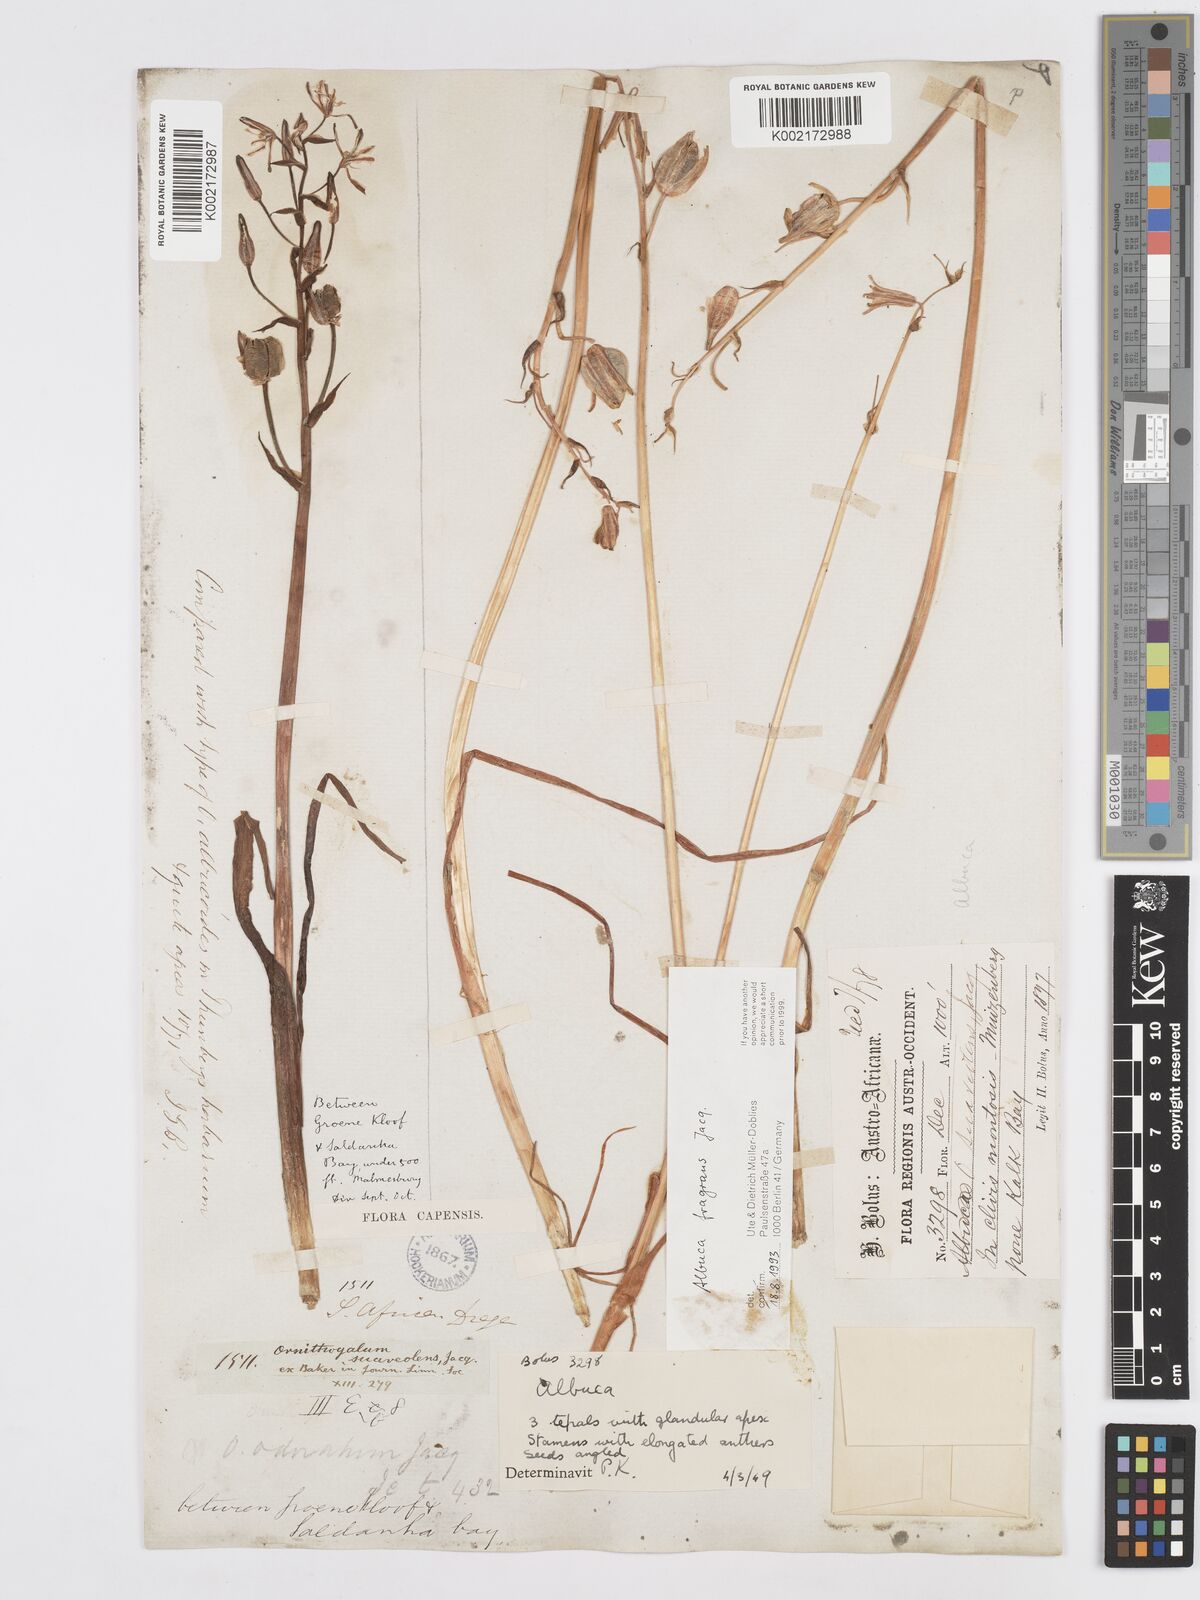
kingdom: Plantae
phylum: Tracheophyta
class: Liliopsida
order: Asparagales
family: Asparagaceae
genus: Albuca
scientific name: Albuca fragrans
